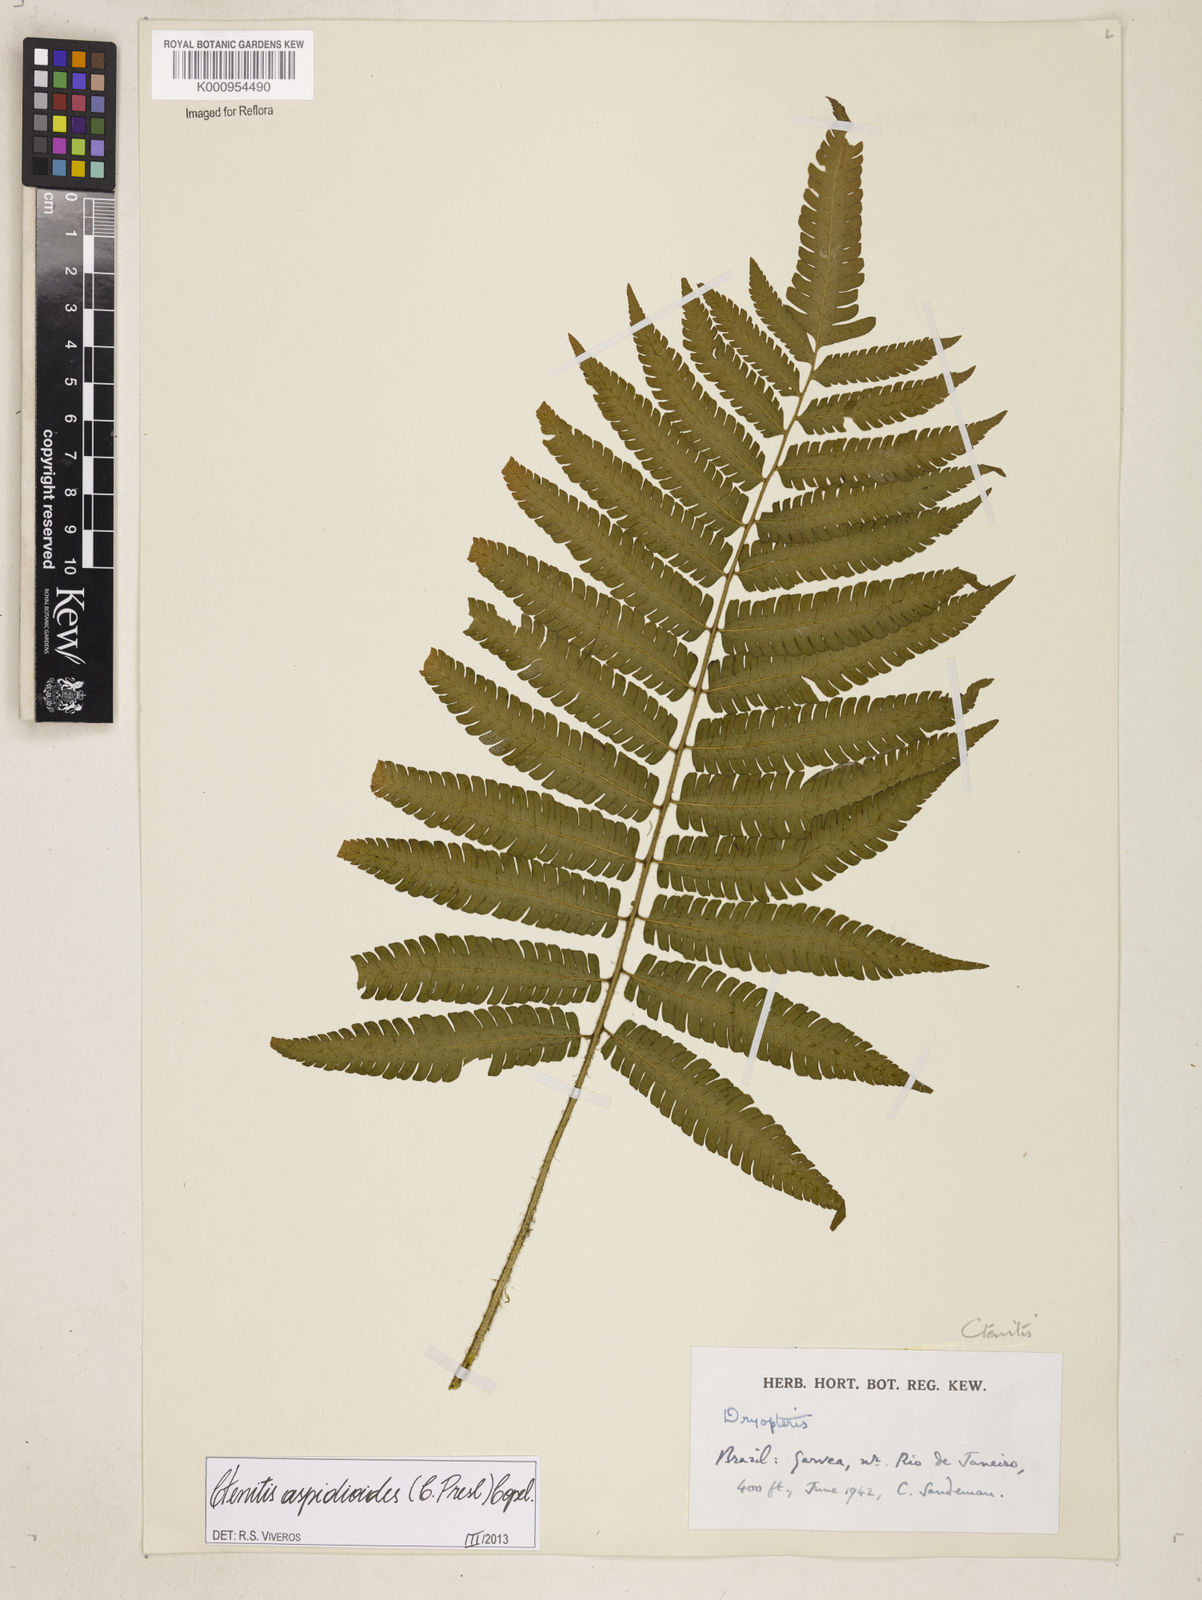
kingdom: Plantae
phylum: Tracheophyta
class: Polypodiopsida
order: Polypodiales
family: Dryopteridaceae
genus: Ctenitis
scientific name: Ctenitis aspidioides
